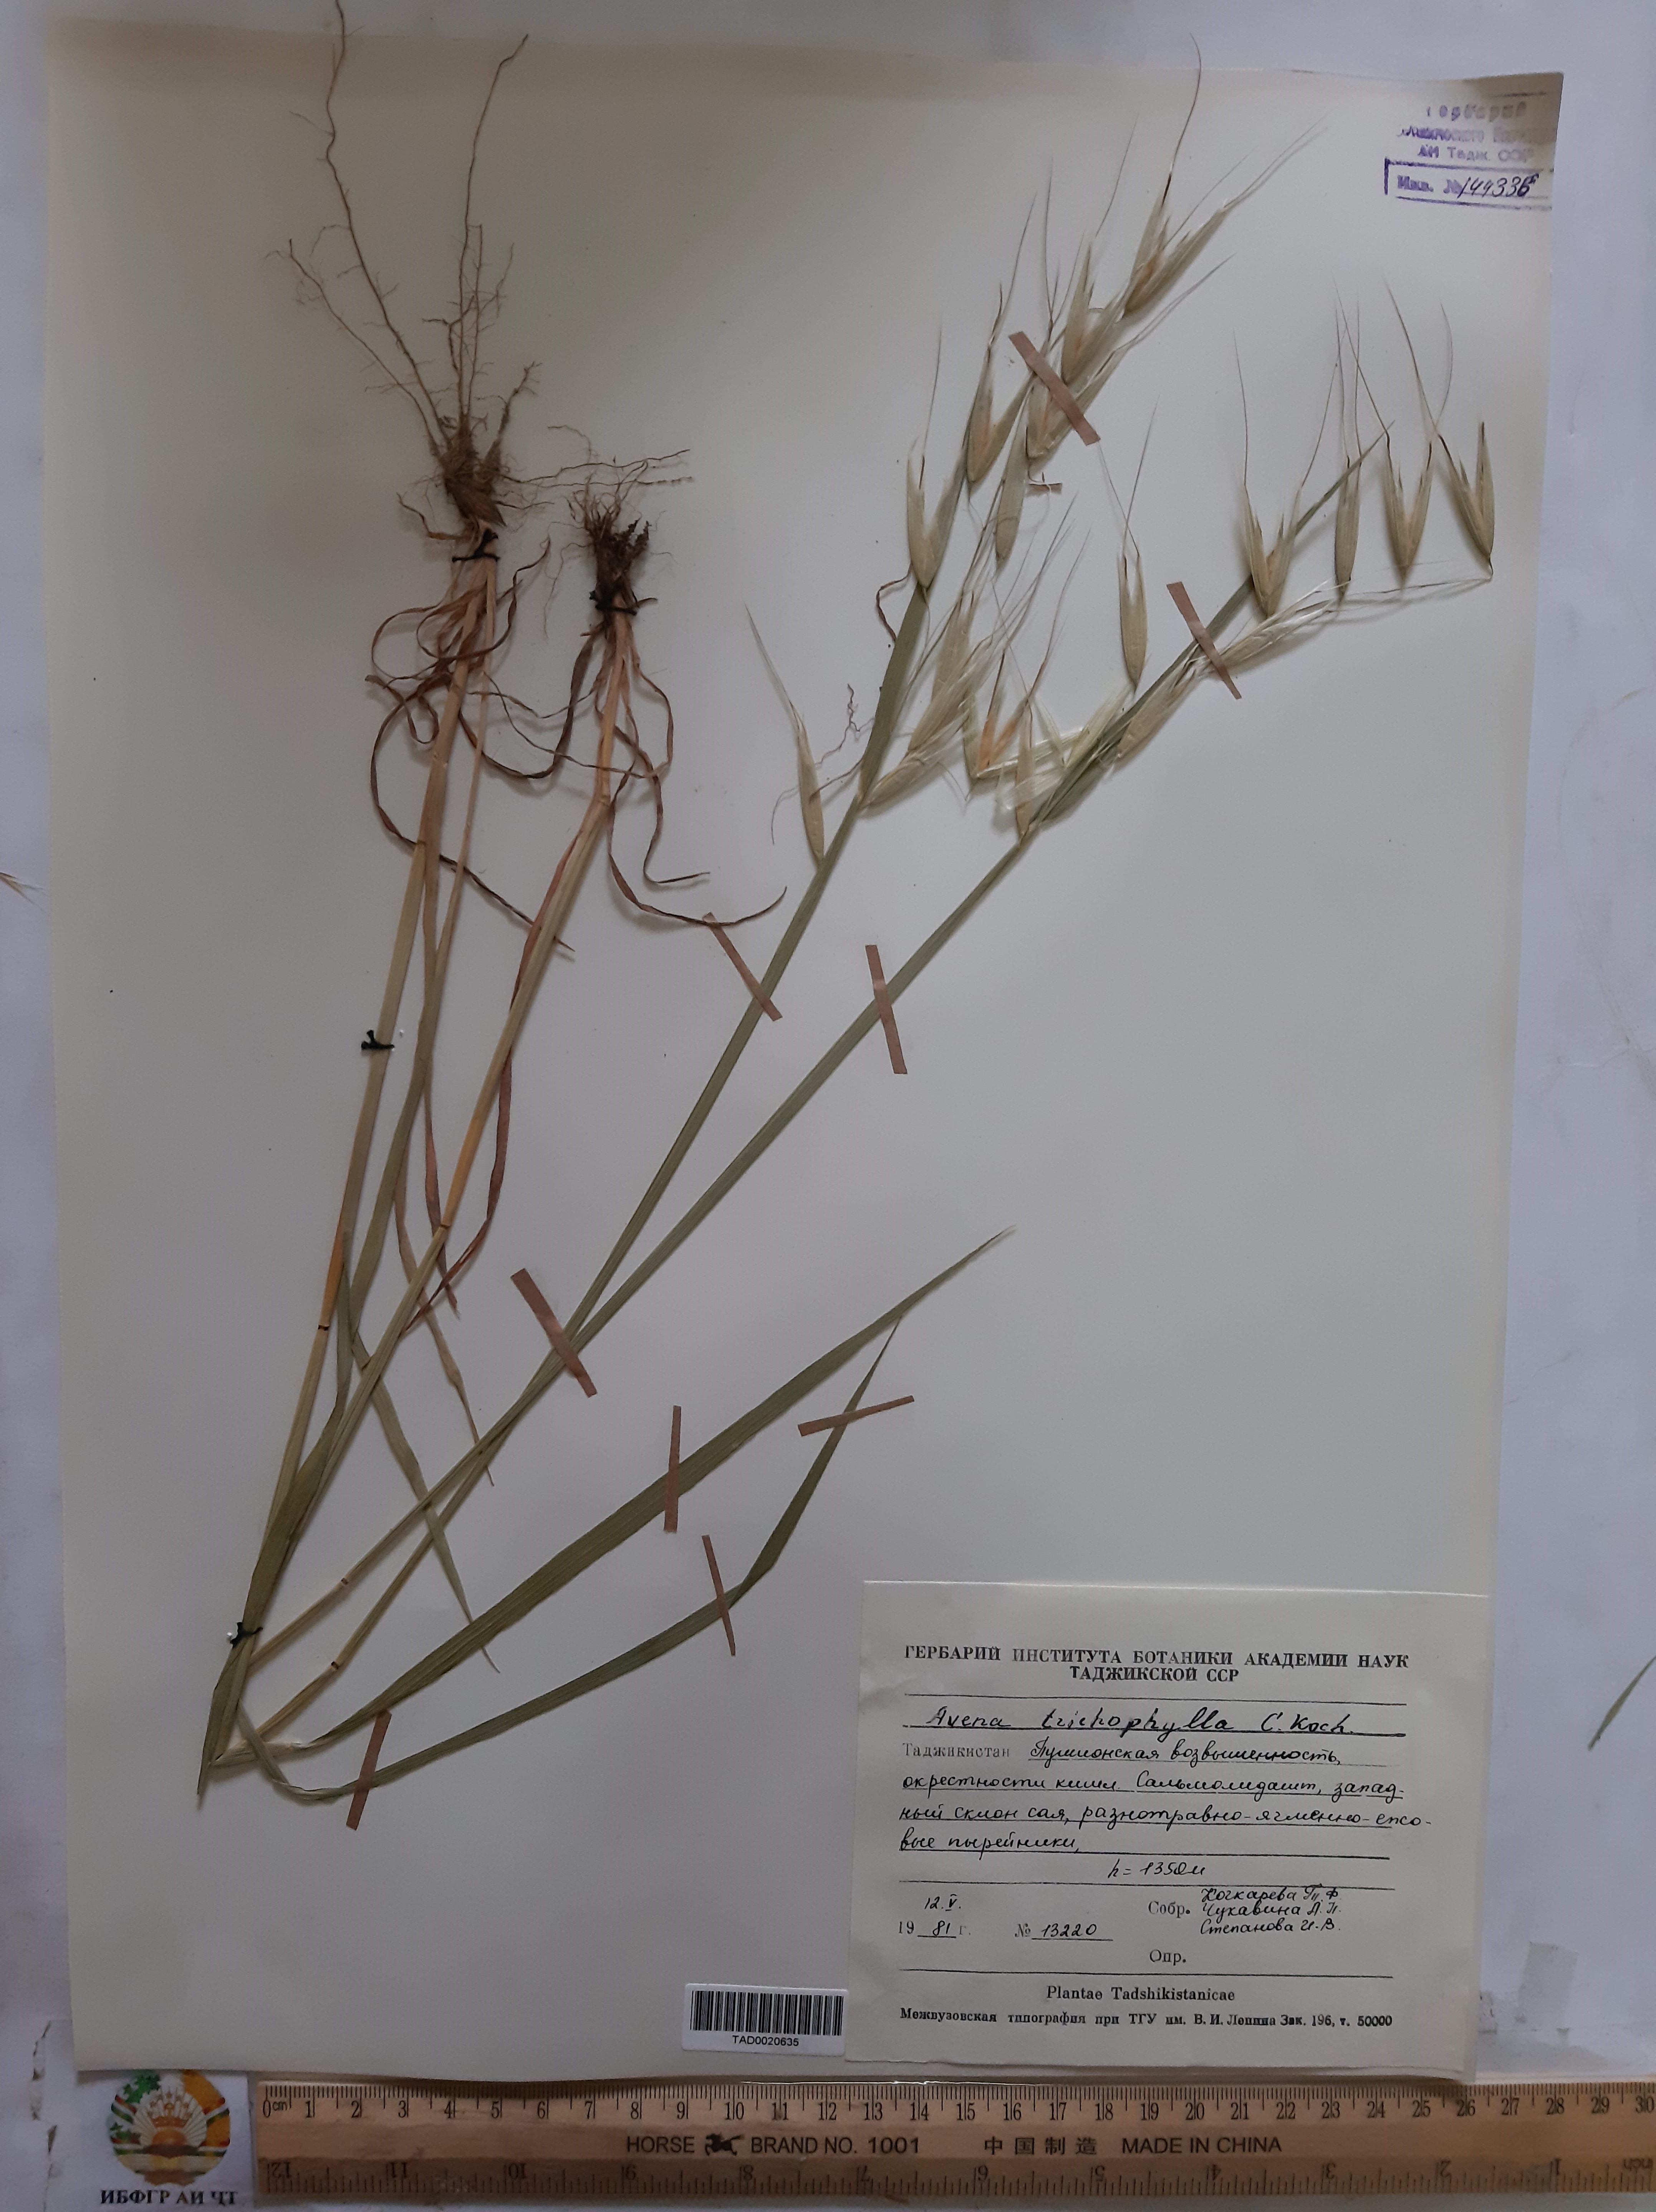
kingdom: Plantae
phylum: Tracheophyta
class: Liliopsida
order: Poales
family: Poaceae
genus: Avena
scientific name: Avena sterilis
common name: Animated oat
